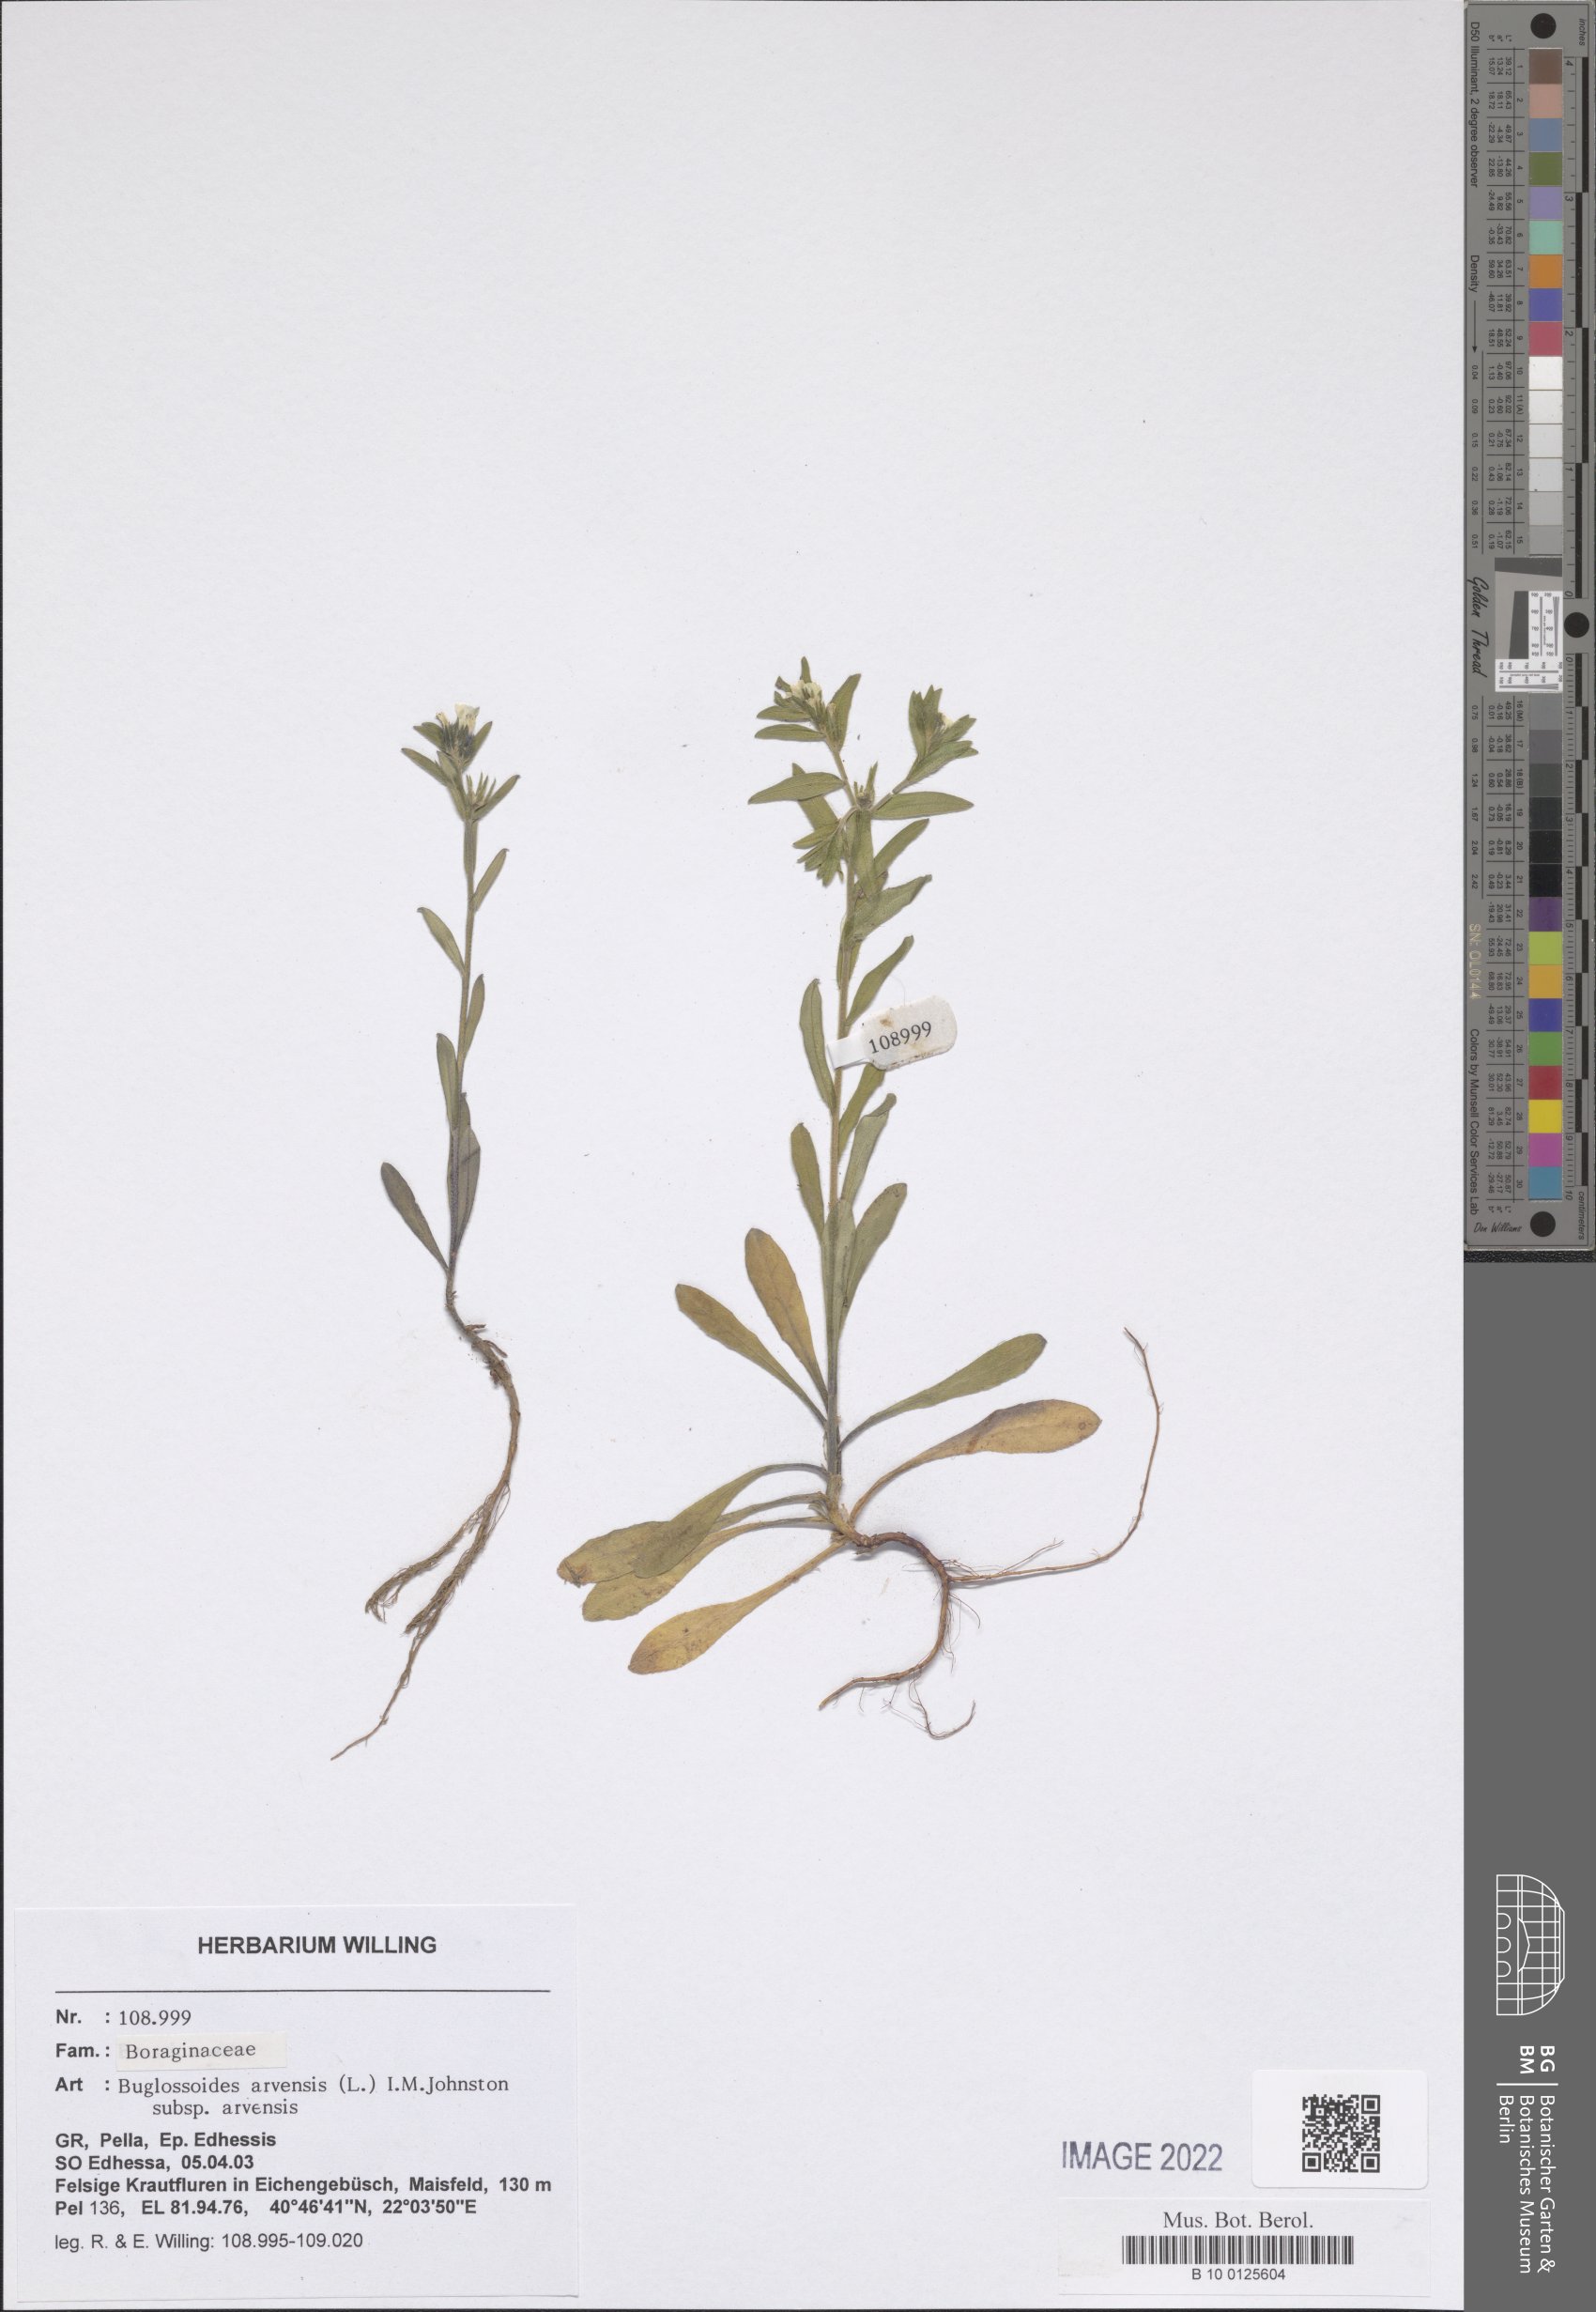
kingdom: Plantae
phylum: Tracheophyta
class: Magnoliopsida
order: Boraginales
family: Boraginaceae
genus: Buglossoides
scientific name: Buglossoides arvensis
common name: Corn gromwell
